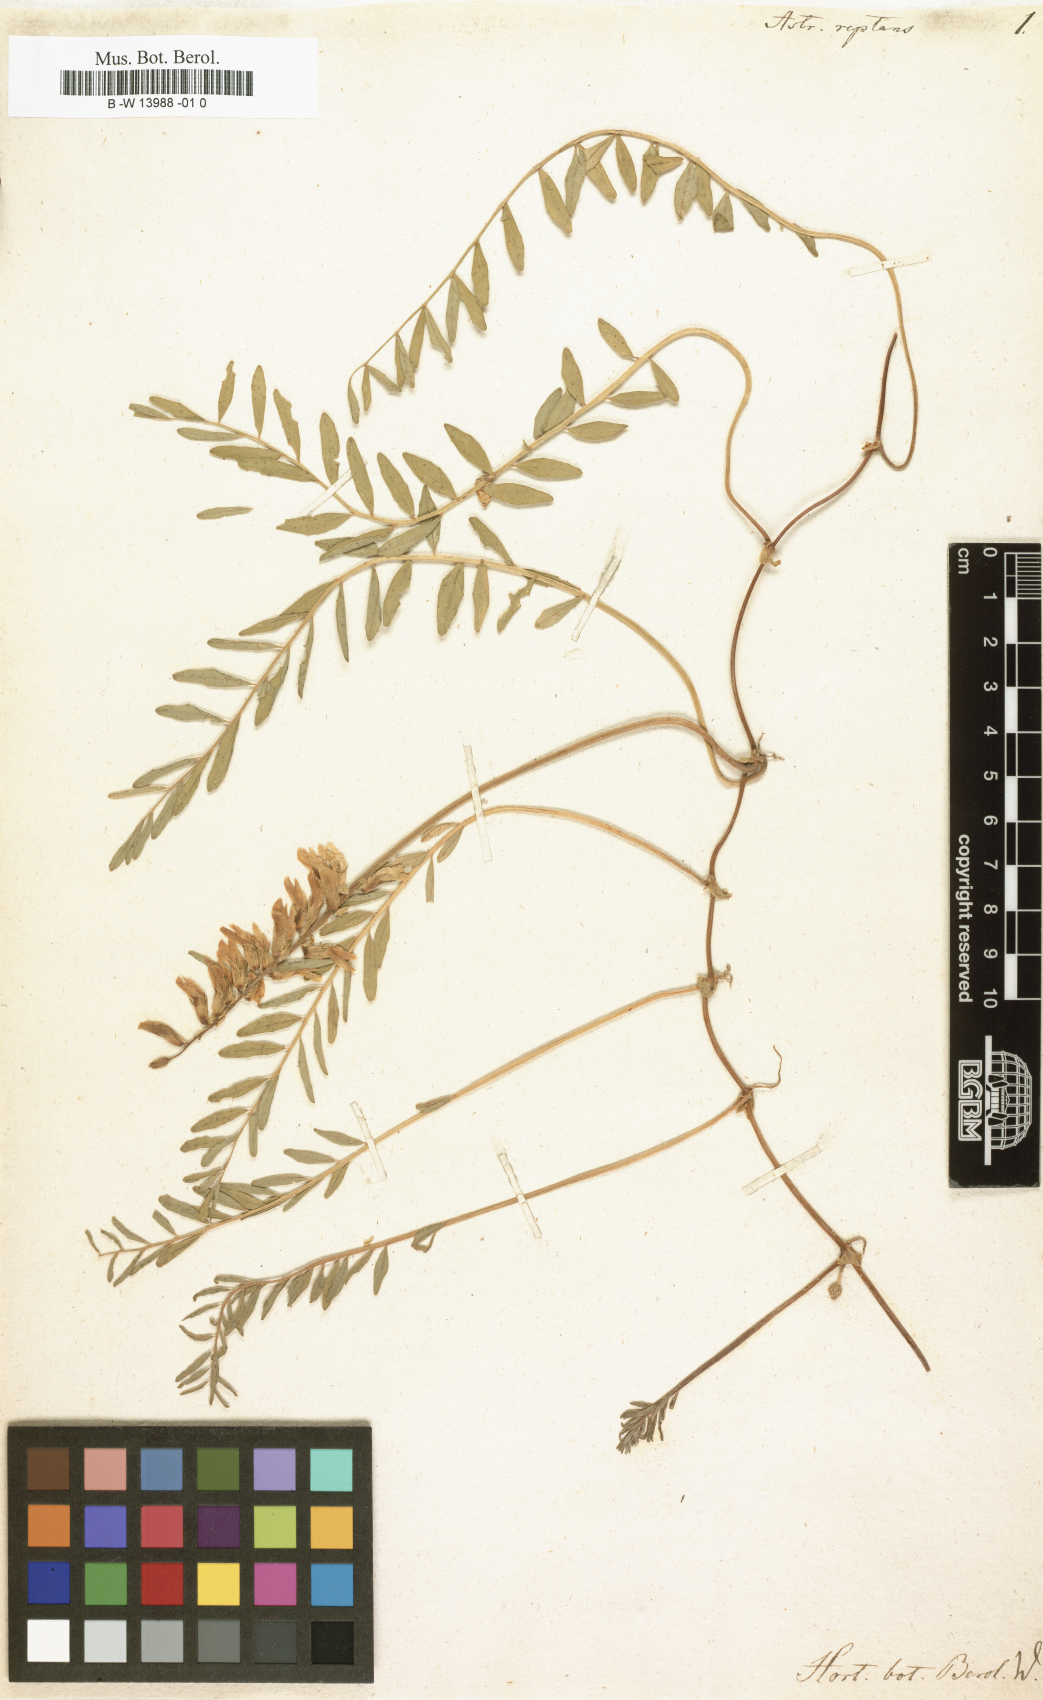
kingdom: Plantae
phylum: Tracheophyta
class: Magnoliopsida
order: Fabales
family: Fabaceae
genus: Astragalus
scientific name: Astragalus radicans
